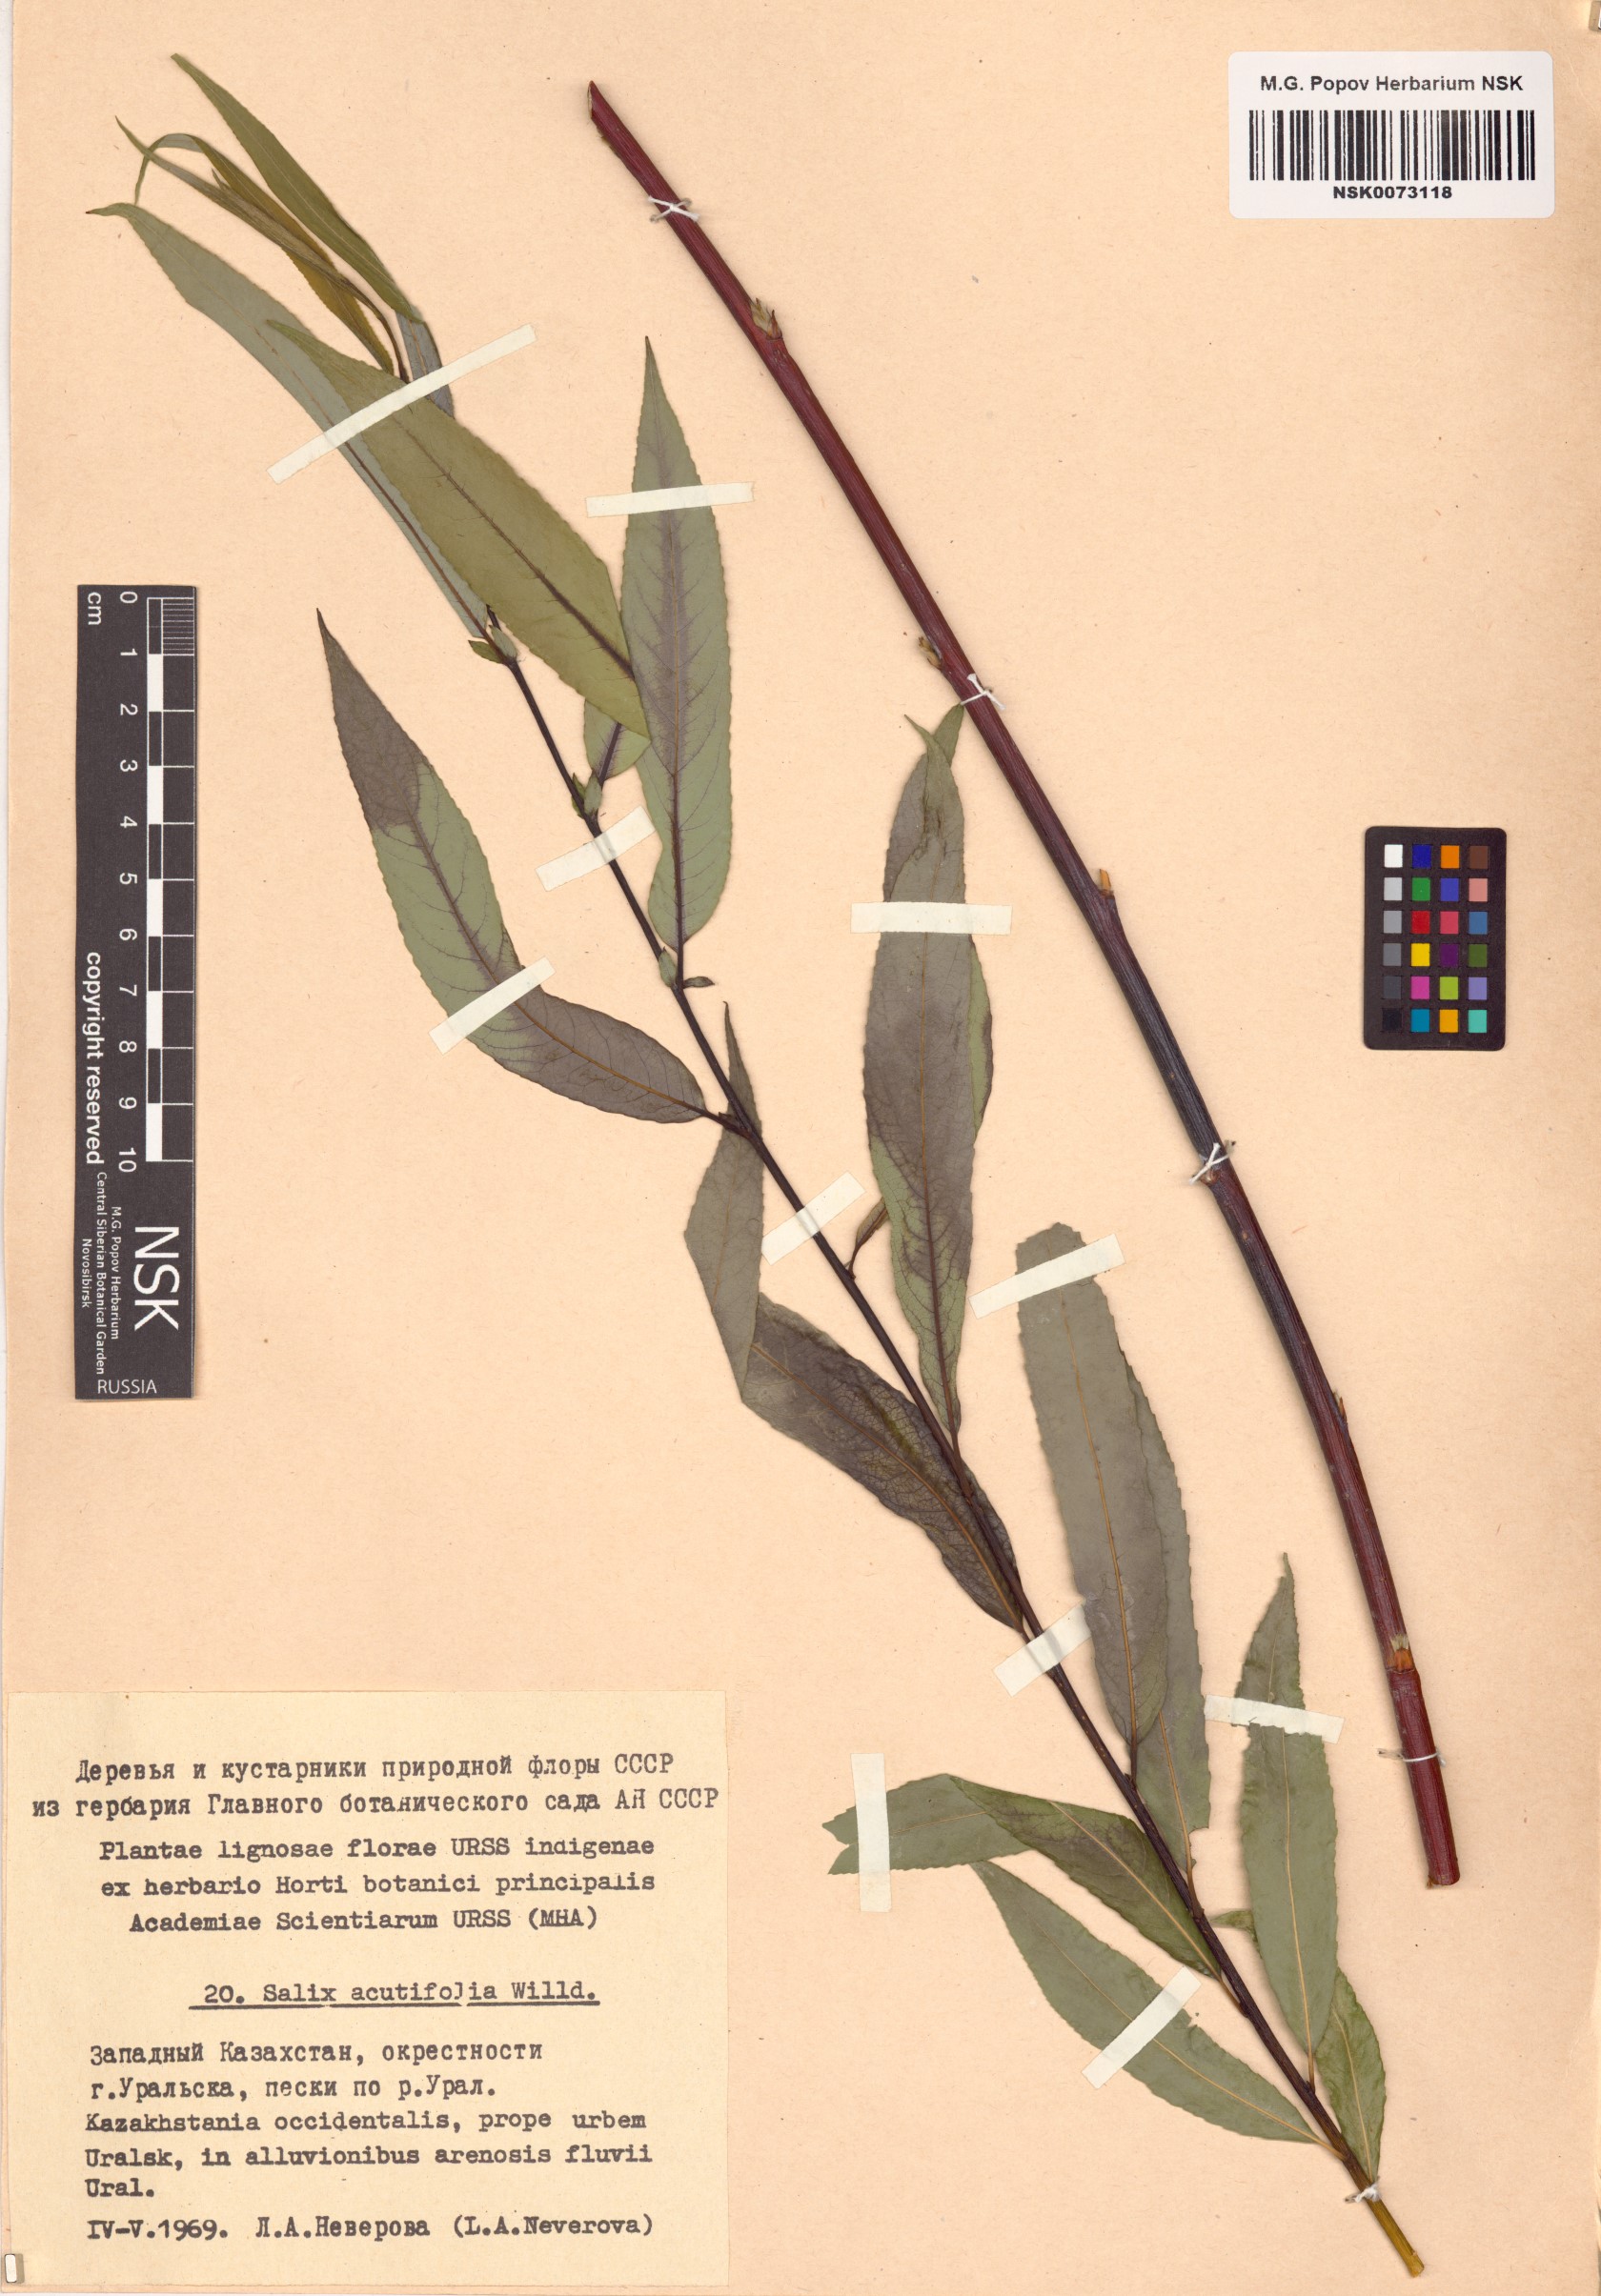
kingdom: Plantae
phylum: Tracheophyta
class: Magnoliopsida
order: Malpighiales
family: Salicaceae
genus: Salix
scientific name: Salix acutifolia
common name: Siberian violet-willow
